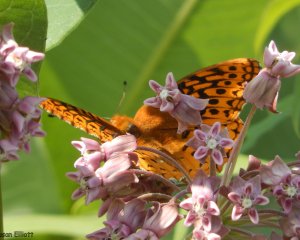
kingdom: Animalia
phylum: Arthropoda
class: Insecta
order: Lepidoptera
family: Nymphalidae
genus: Speyeria
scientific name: Speyeria aphrodite
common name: Aphrodite Fritillary
